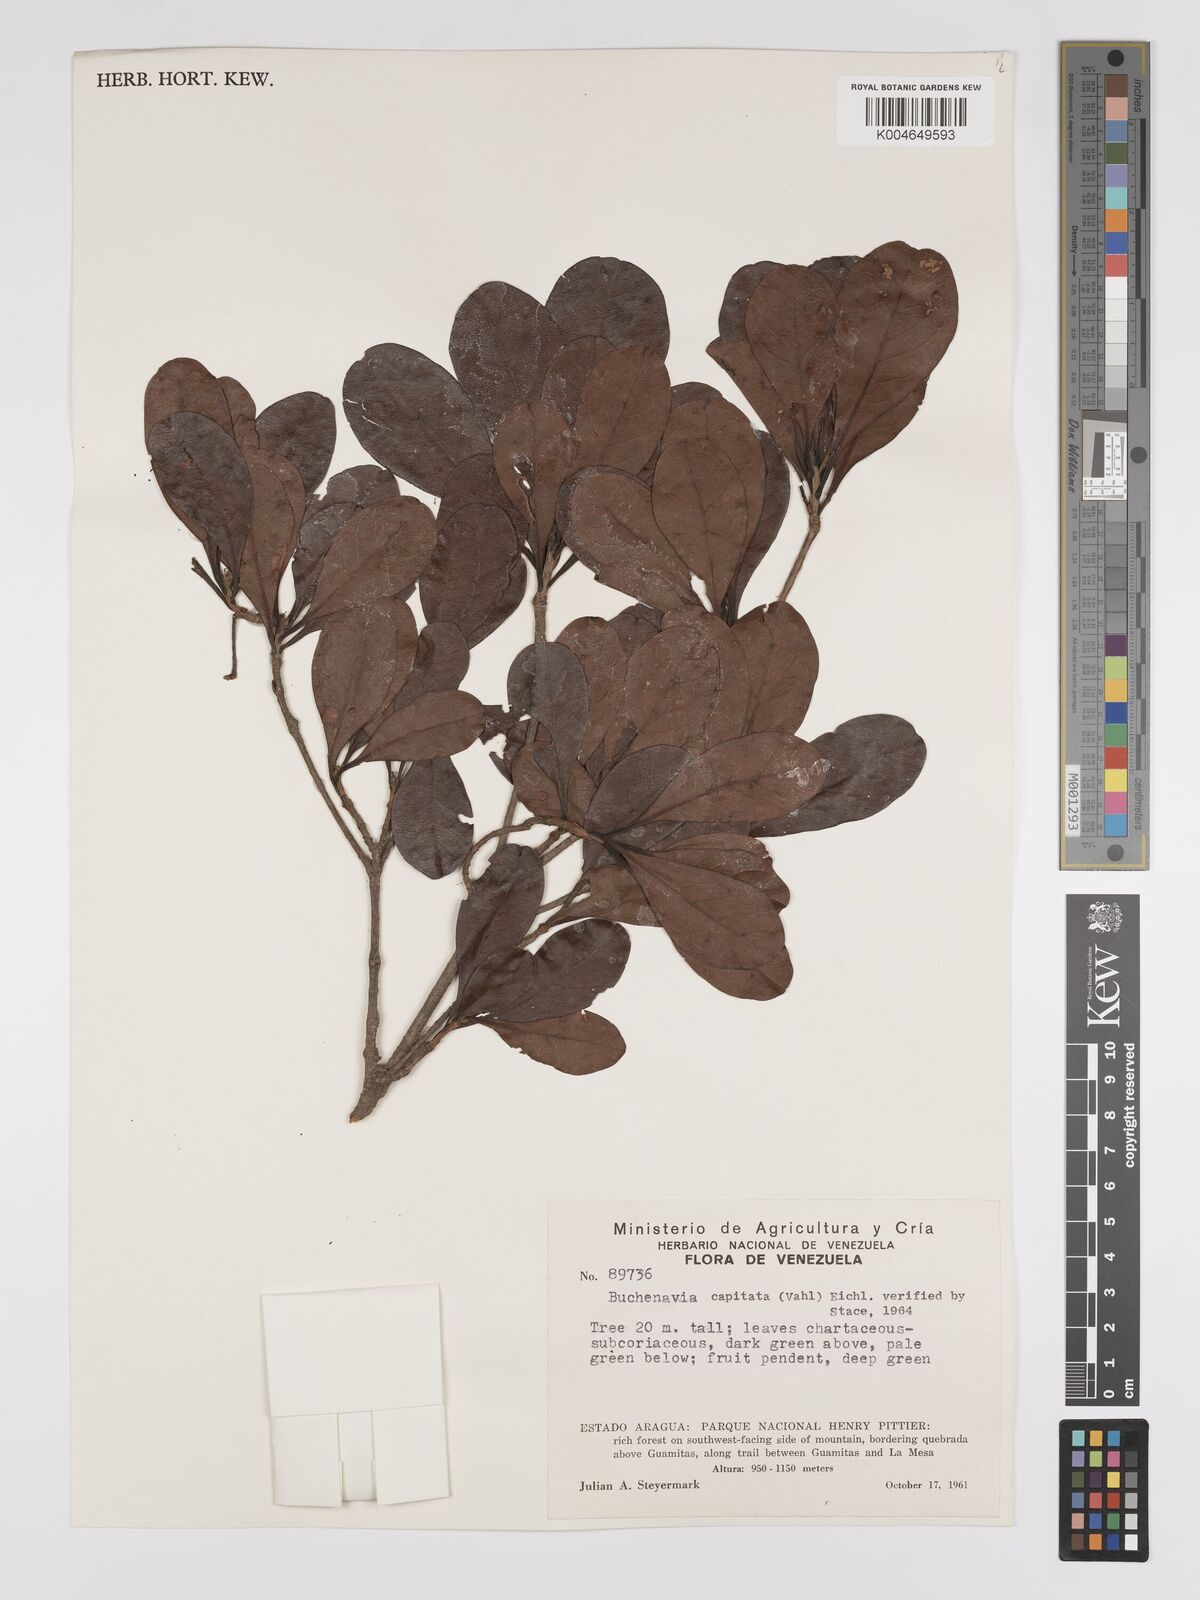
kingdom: Plantae
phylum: Tracheophyta
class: Magnoliopsida
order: Myrtales
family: Combretaceae
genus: Terminalia
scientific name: Terminalia tetraphylla
